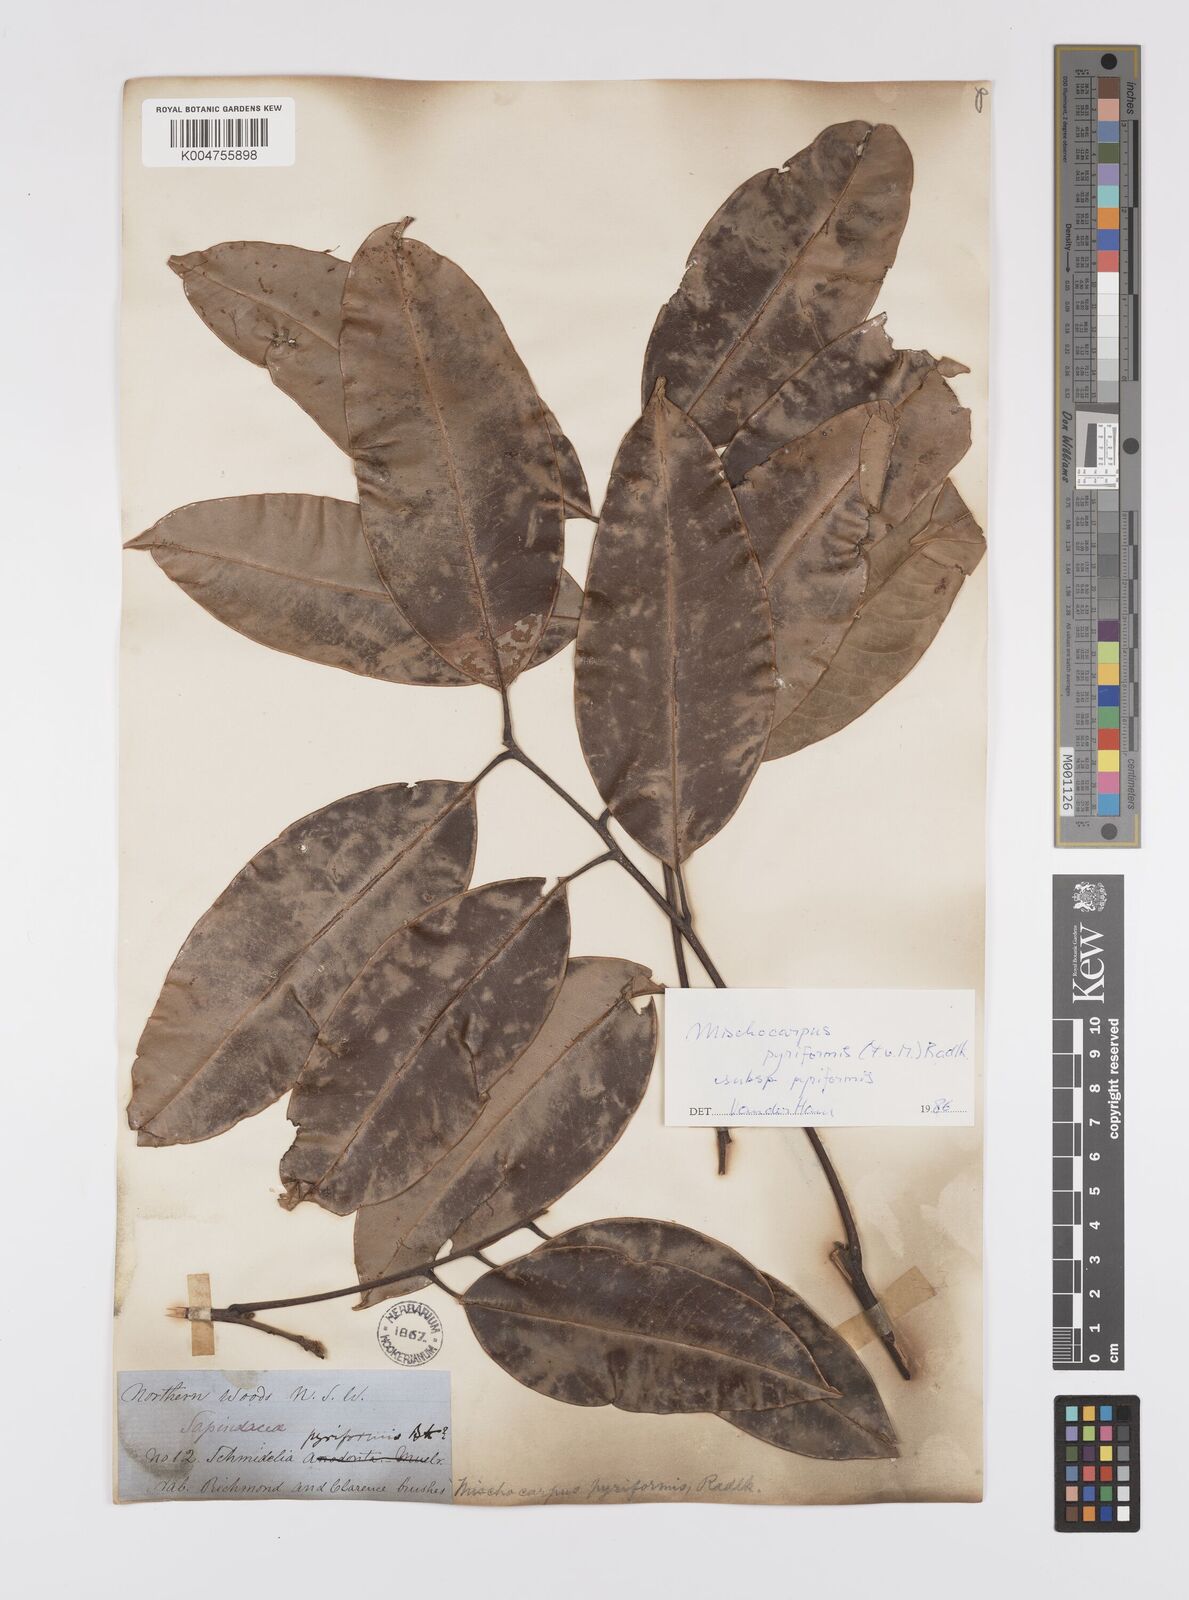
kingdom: Plantae
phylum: Tracheophyta
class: Magnoliopsida
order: Sapindales
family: Sapindaceae
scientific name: Sapindaceae
